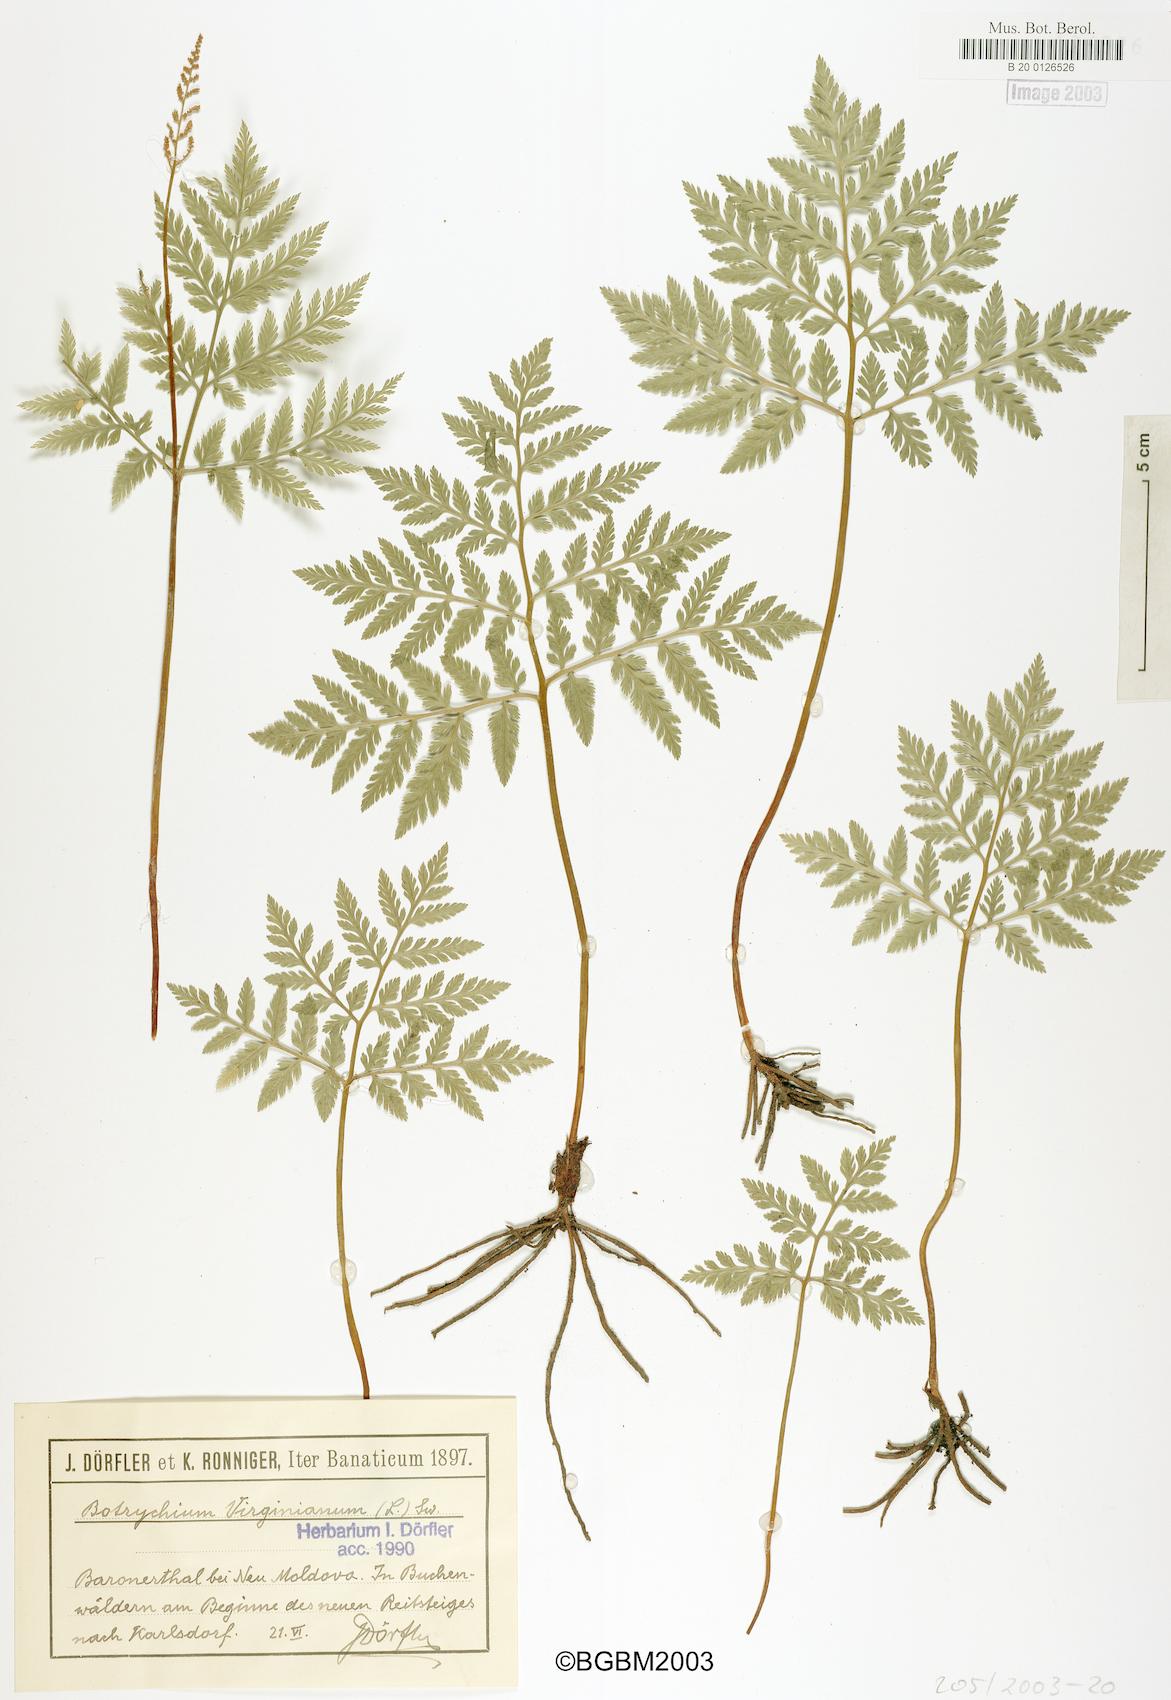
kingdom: Plantae
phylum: Tracheophyta
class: Polypodiopsida
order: Ophioglossales
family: Ophioglossaceae
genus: Botrypus
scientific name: Botrypus virginianus
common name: Common grapefern
